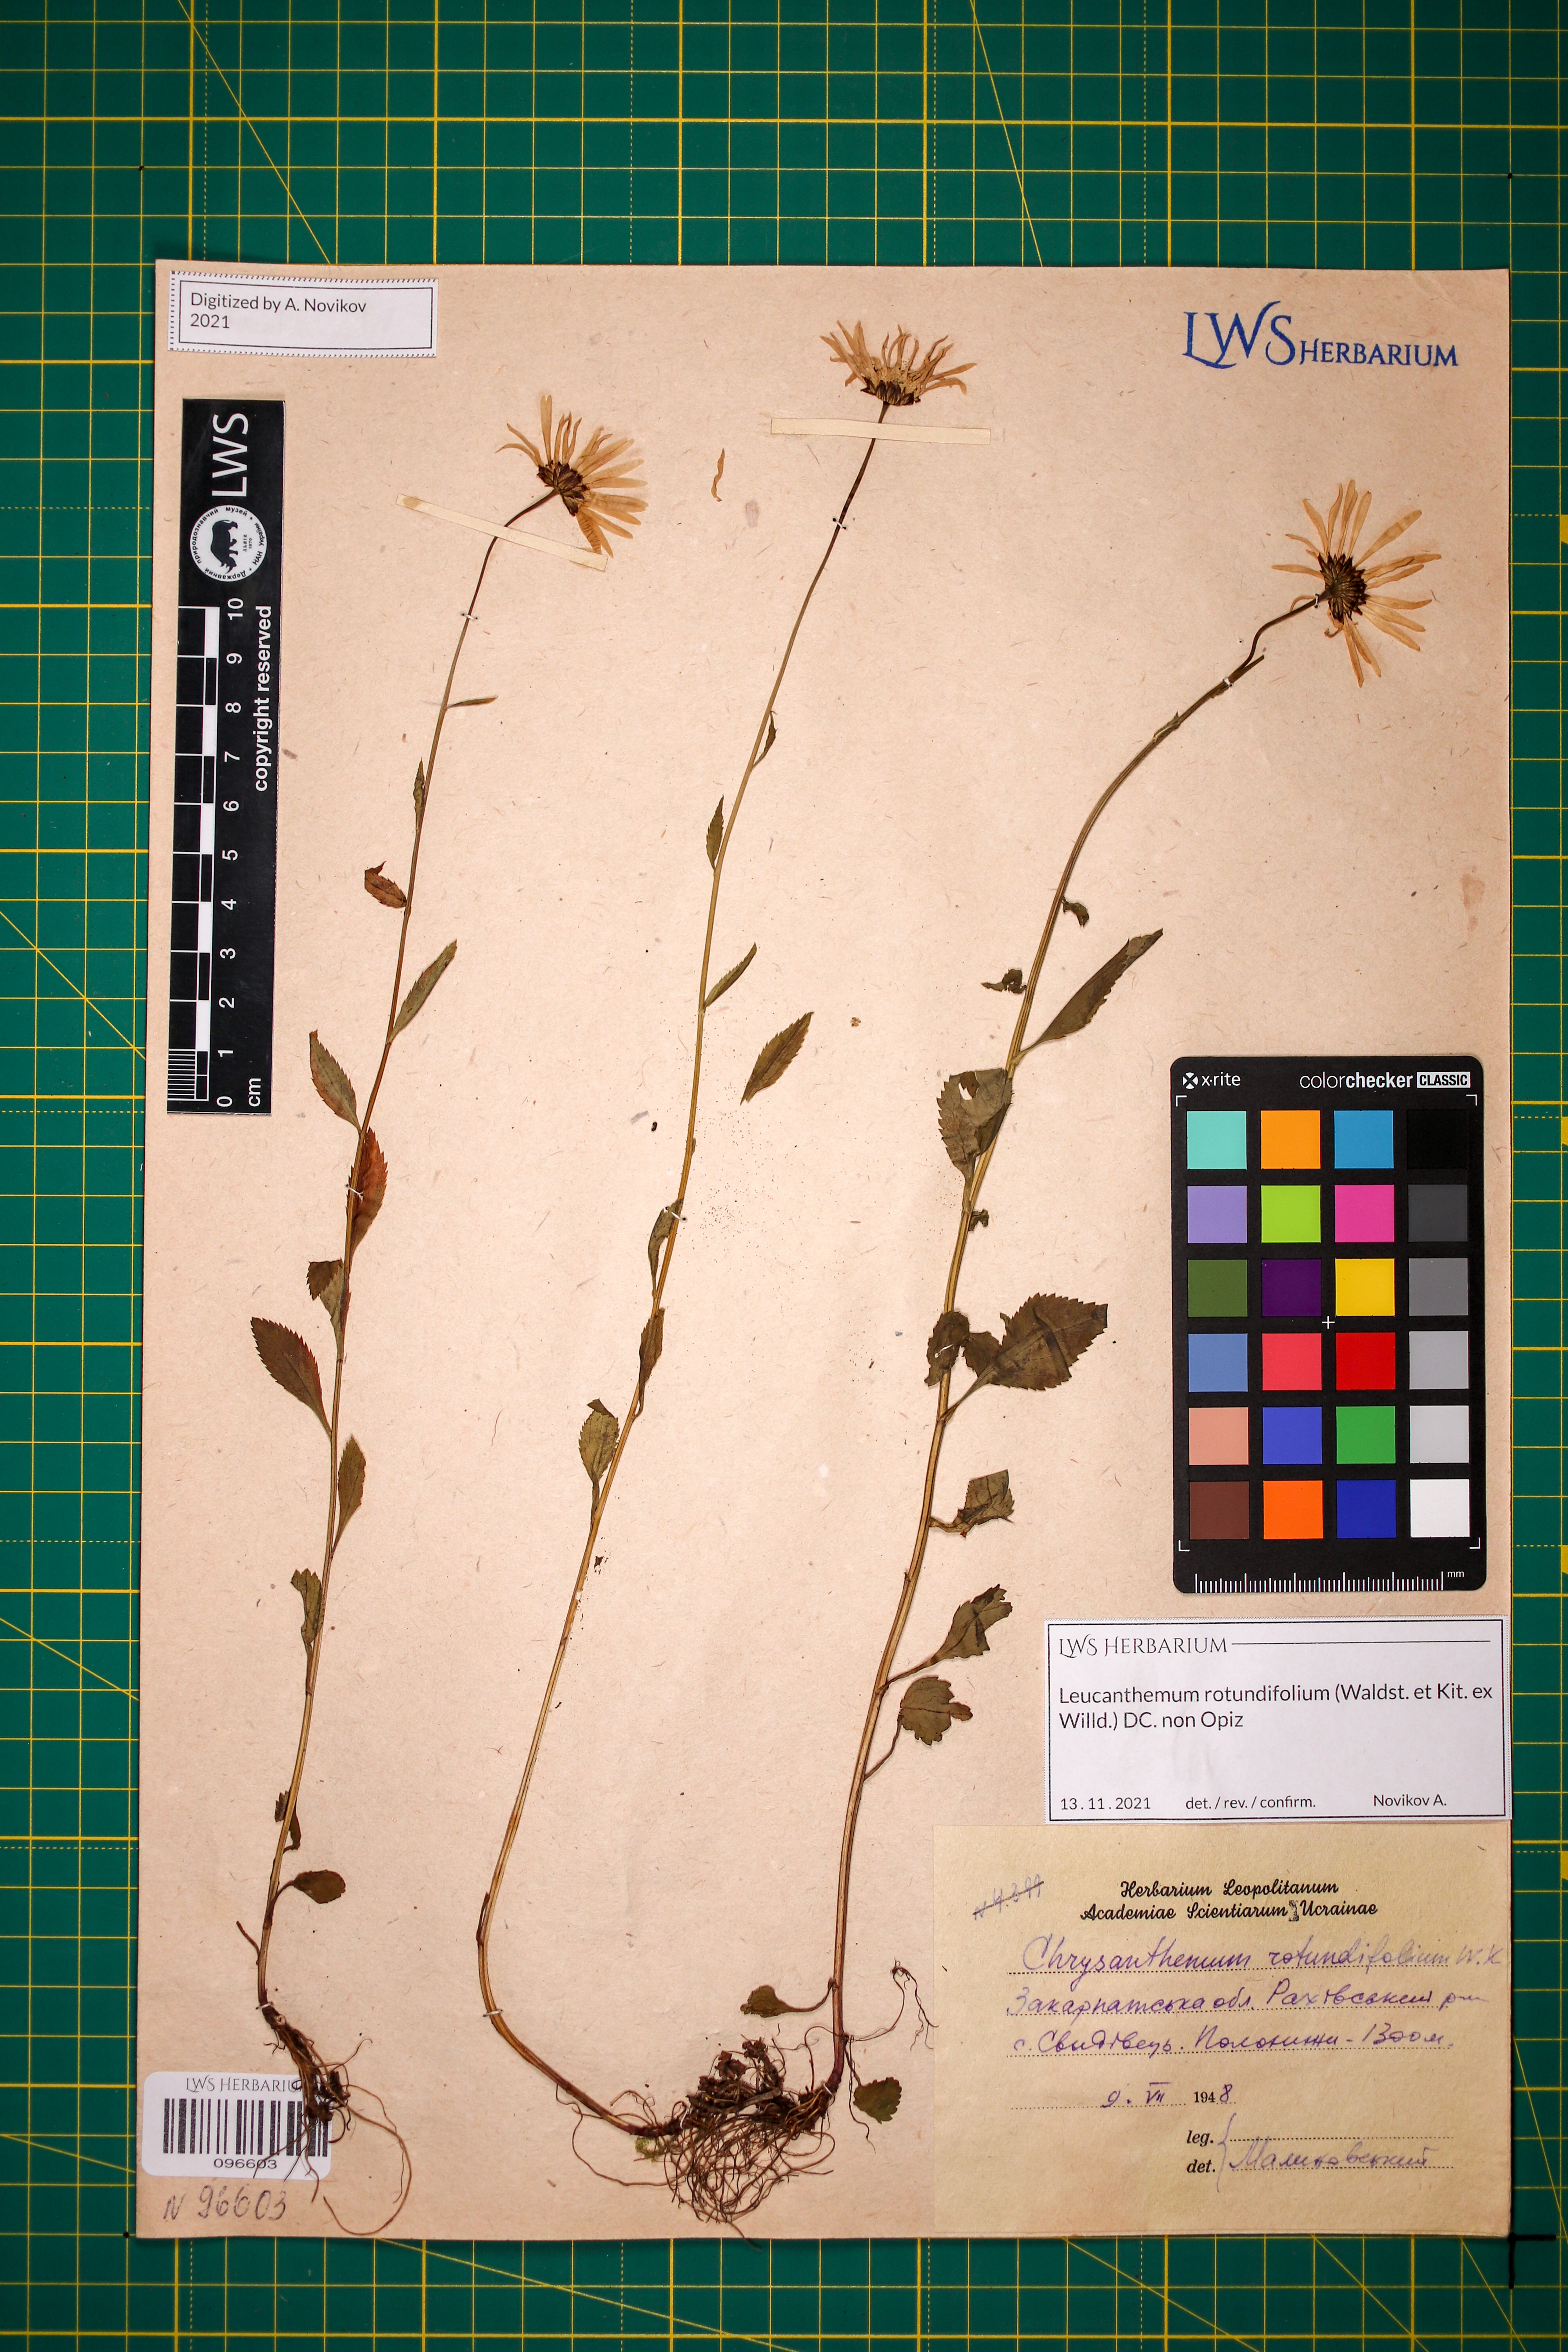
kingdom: Plantae
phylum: Tracheophyta
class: Magnoliopsida
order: Asterales
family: Asteraceae
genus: Leucanthemum
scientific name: Leucanthemum rotundifolium
